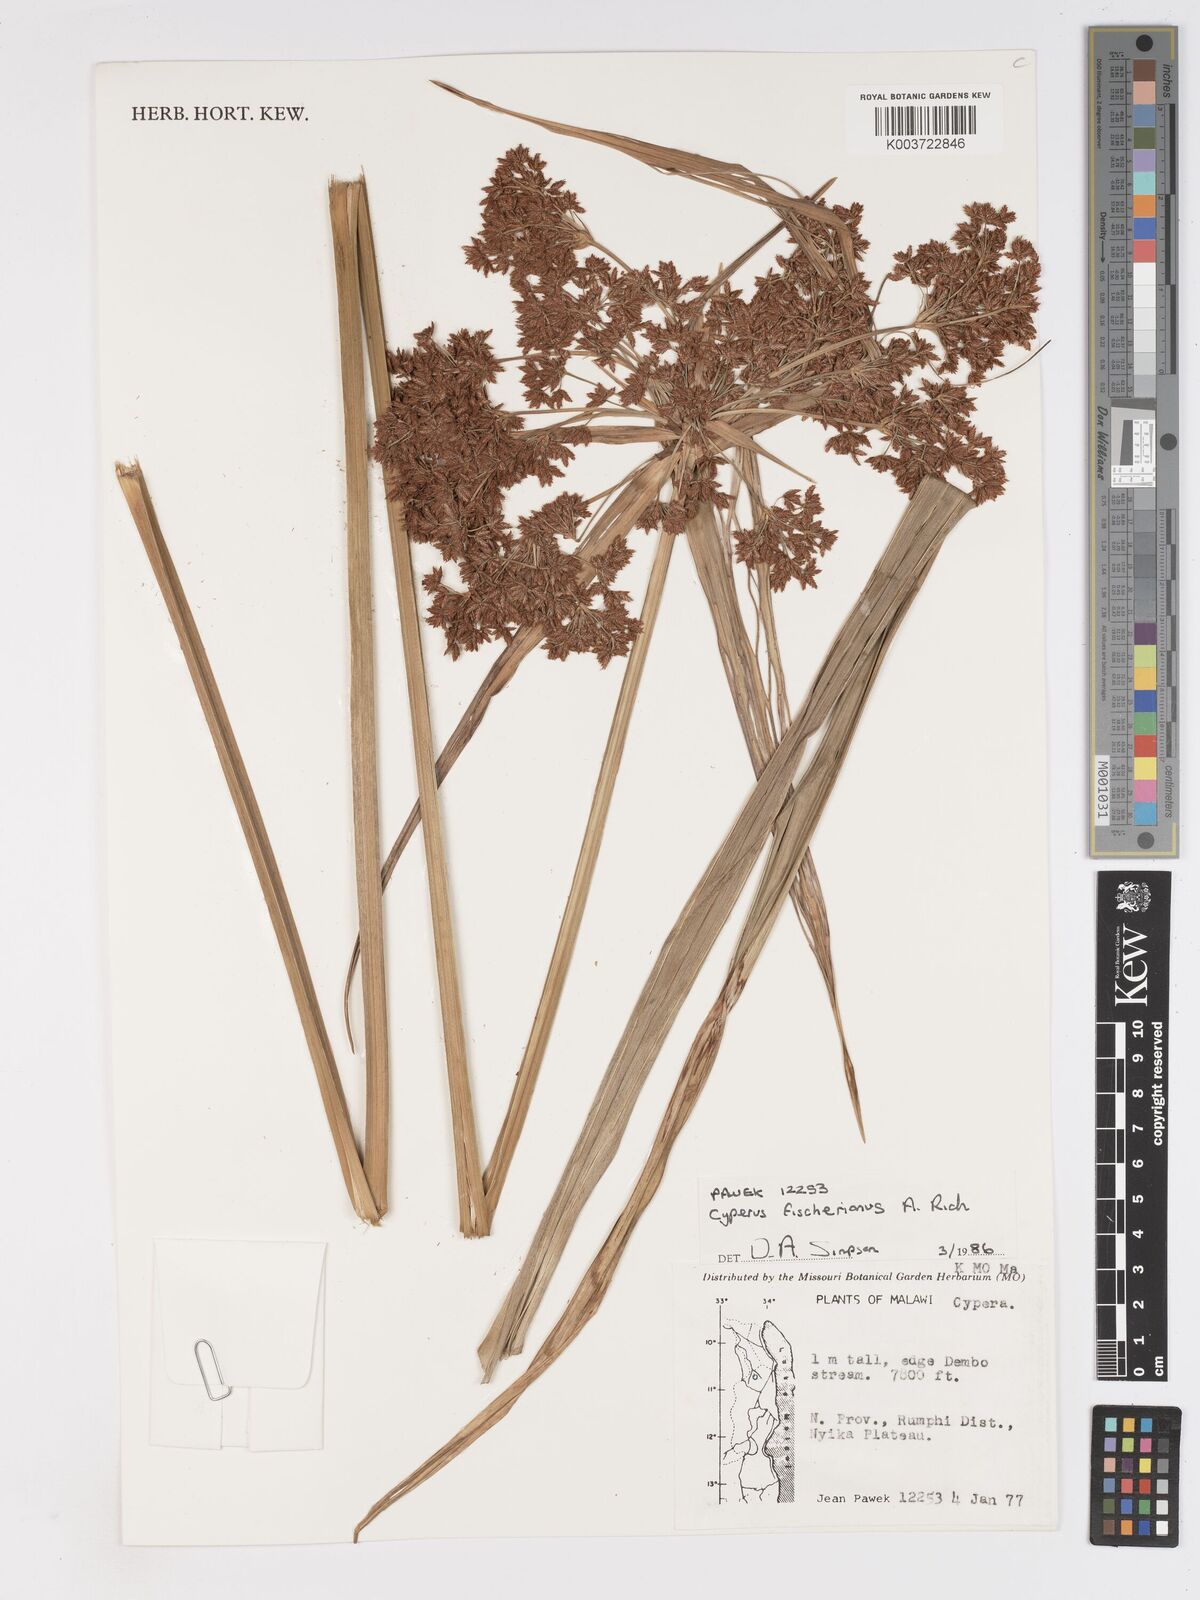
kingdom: Plantae
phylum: Tracheophyta
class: Liliopsida
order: Poales
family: Cyperaceae
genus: Cyperus
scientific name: Cyperus fischerianus
